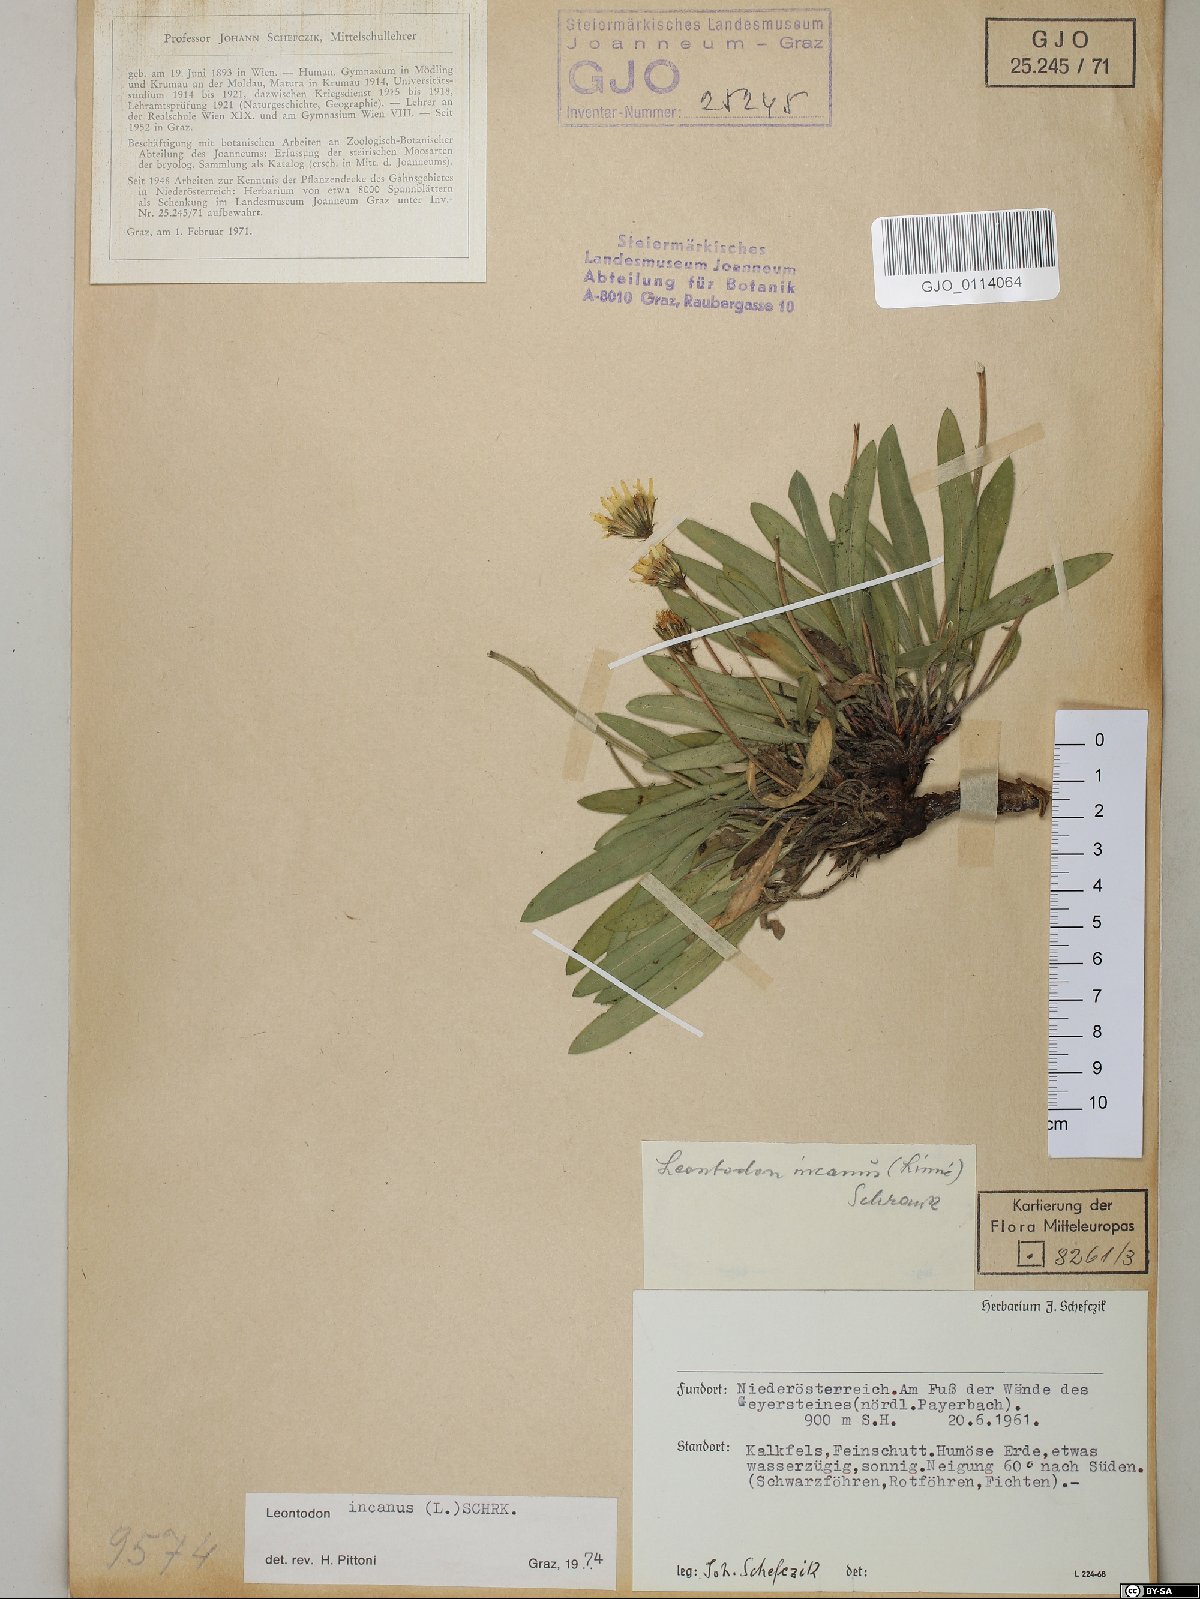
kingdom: Plantae
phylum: Tracheophyta
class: Magnoliopsida
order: Asterales
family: Asteraceae
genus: Leontodon
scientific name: Leontodon incanus
